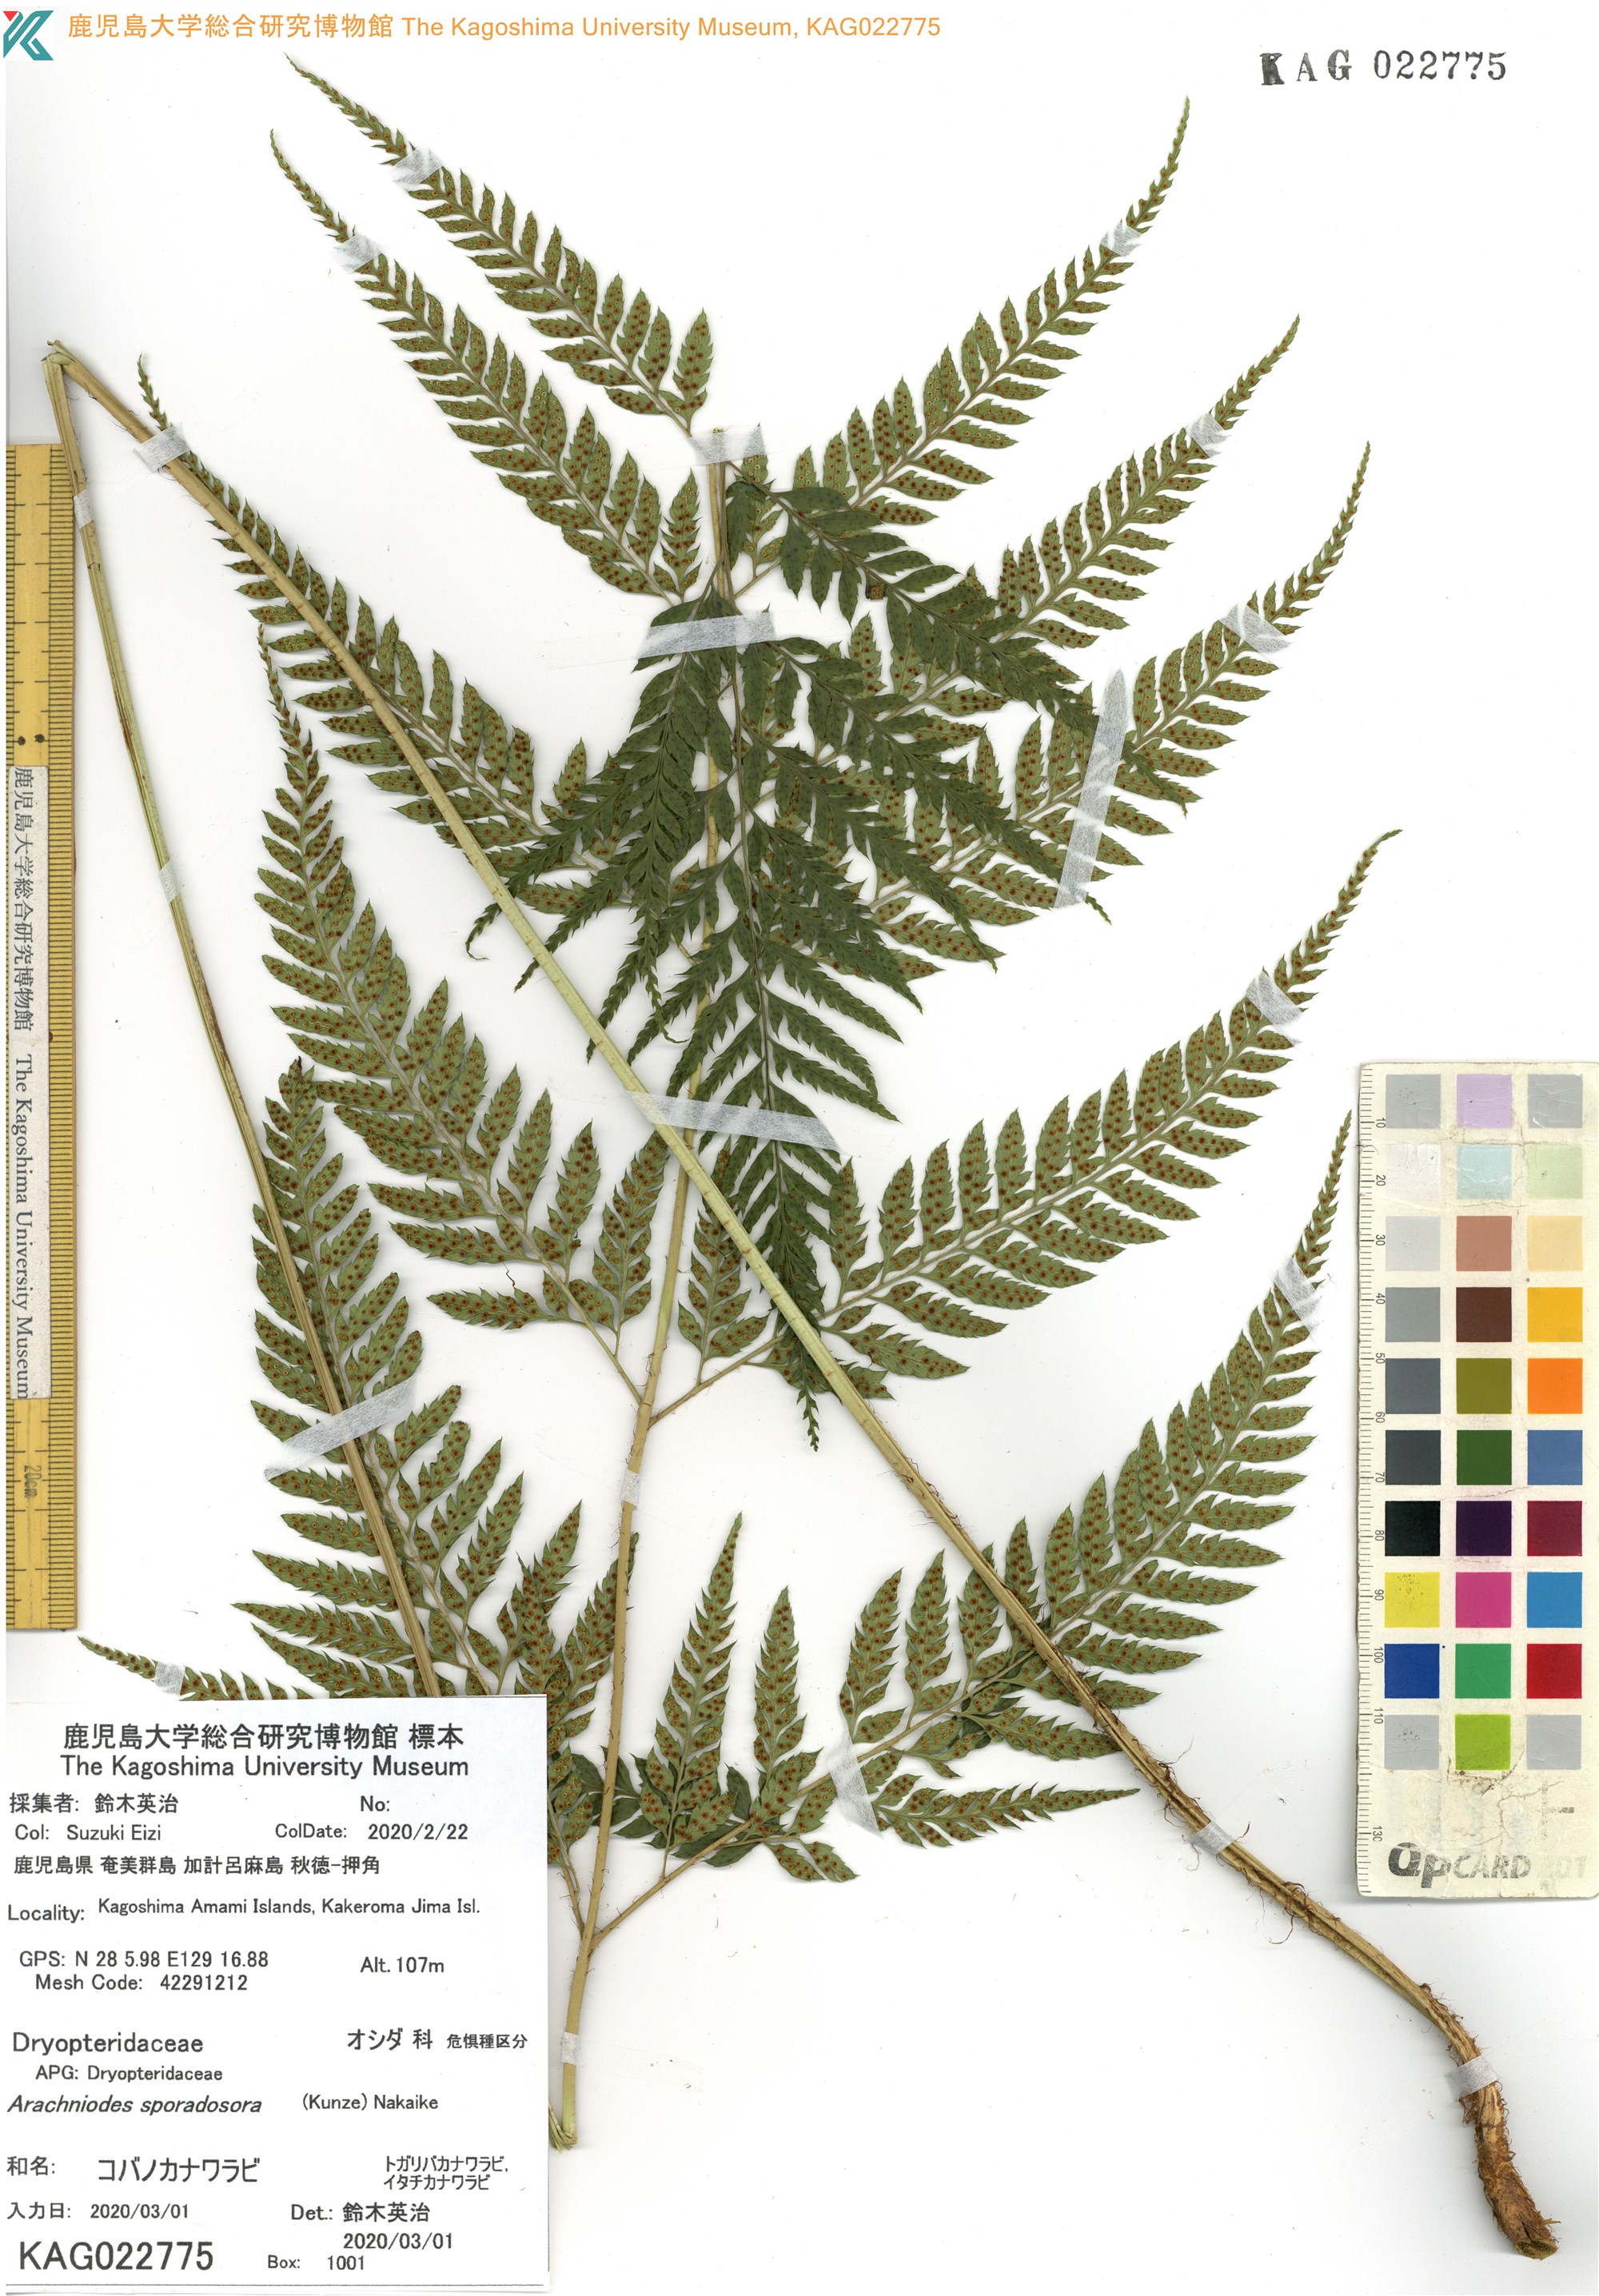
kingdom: Plantae
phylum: Tracheophyta
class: Polypodiopsida
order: Polypodiales
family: Dryopteridaceae
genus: Arachniodes
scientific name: Arachniodes cornu-cervi
